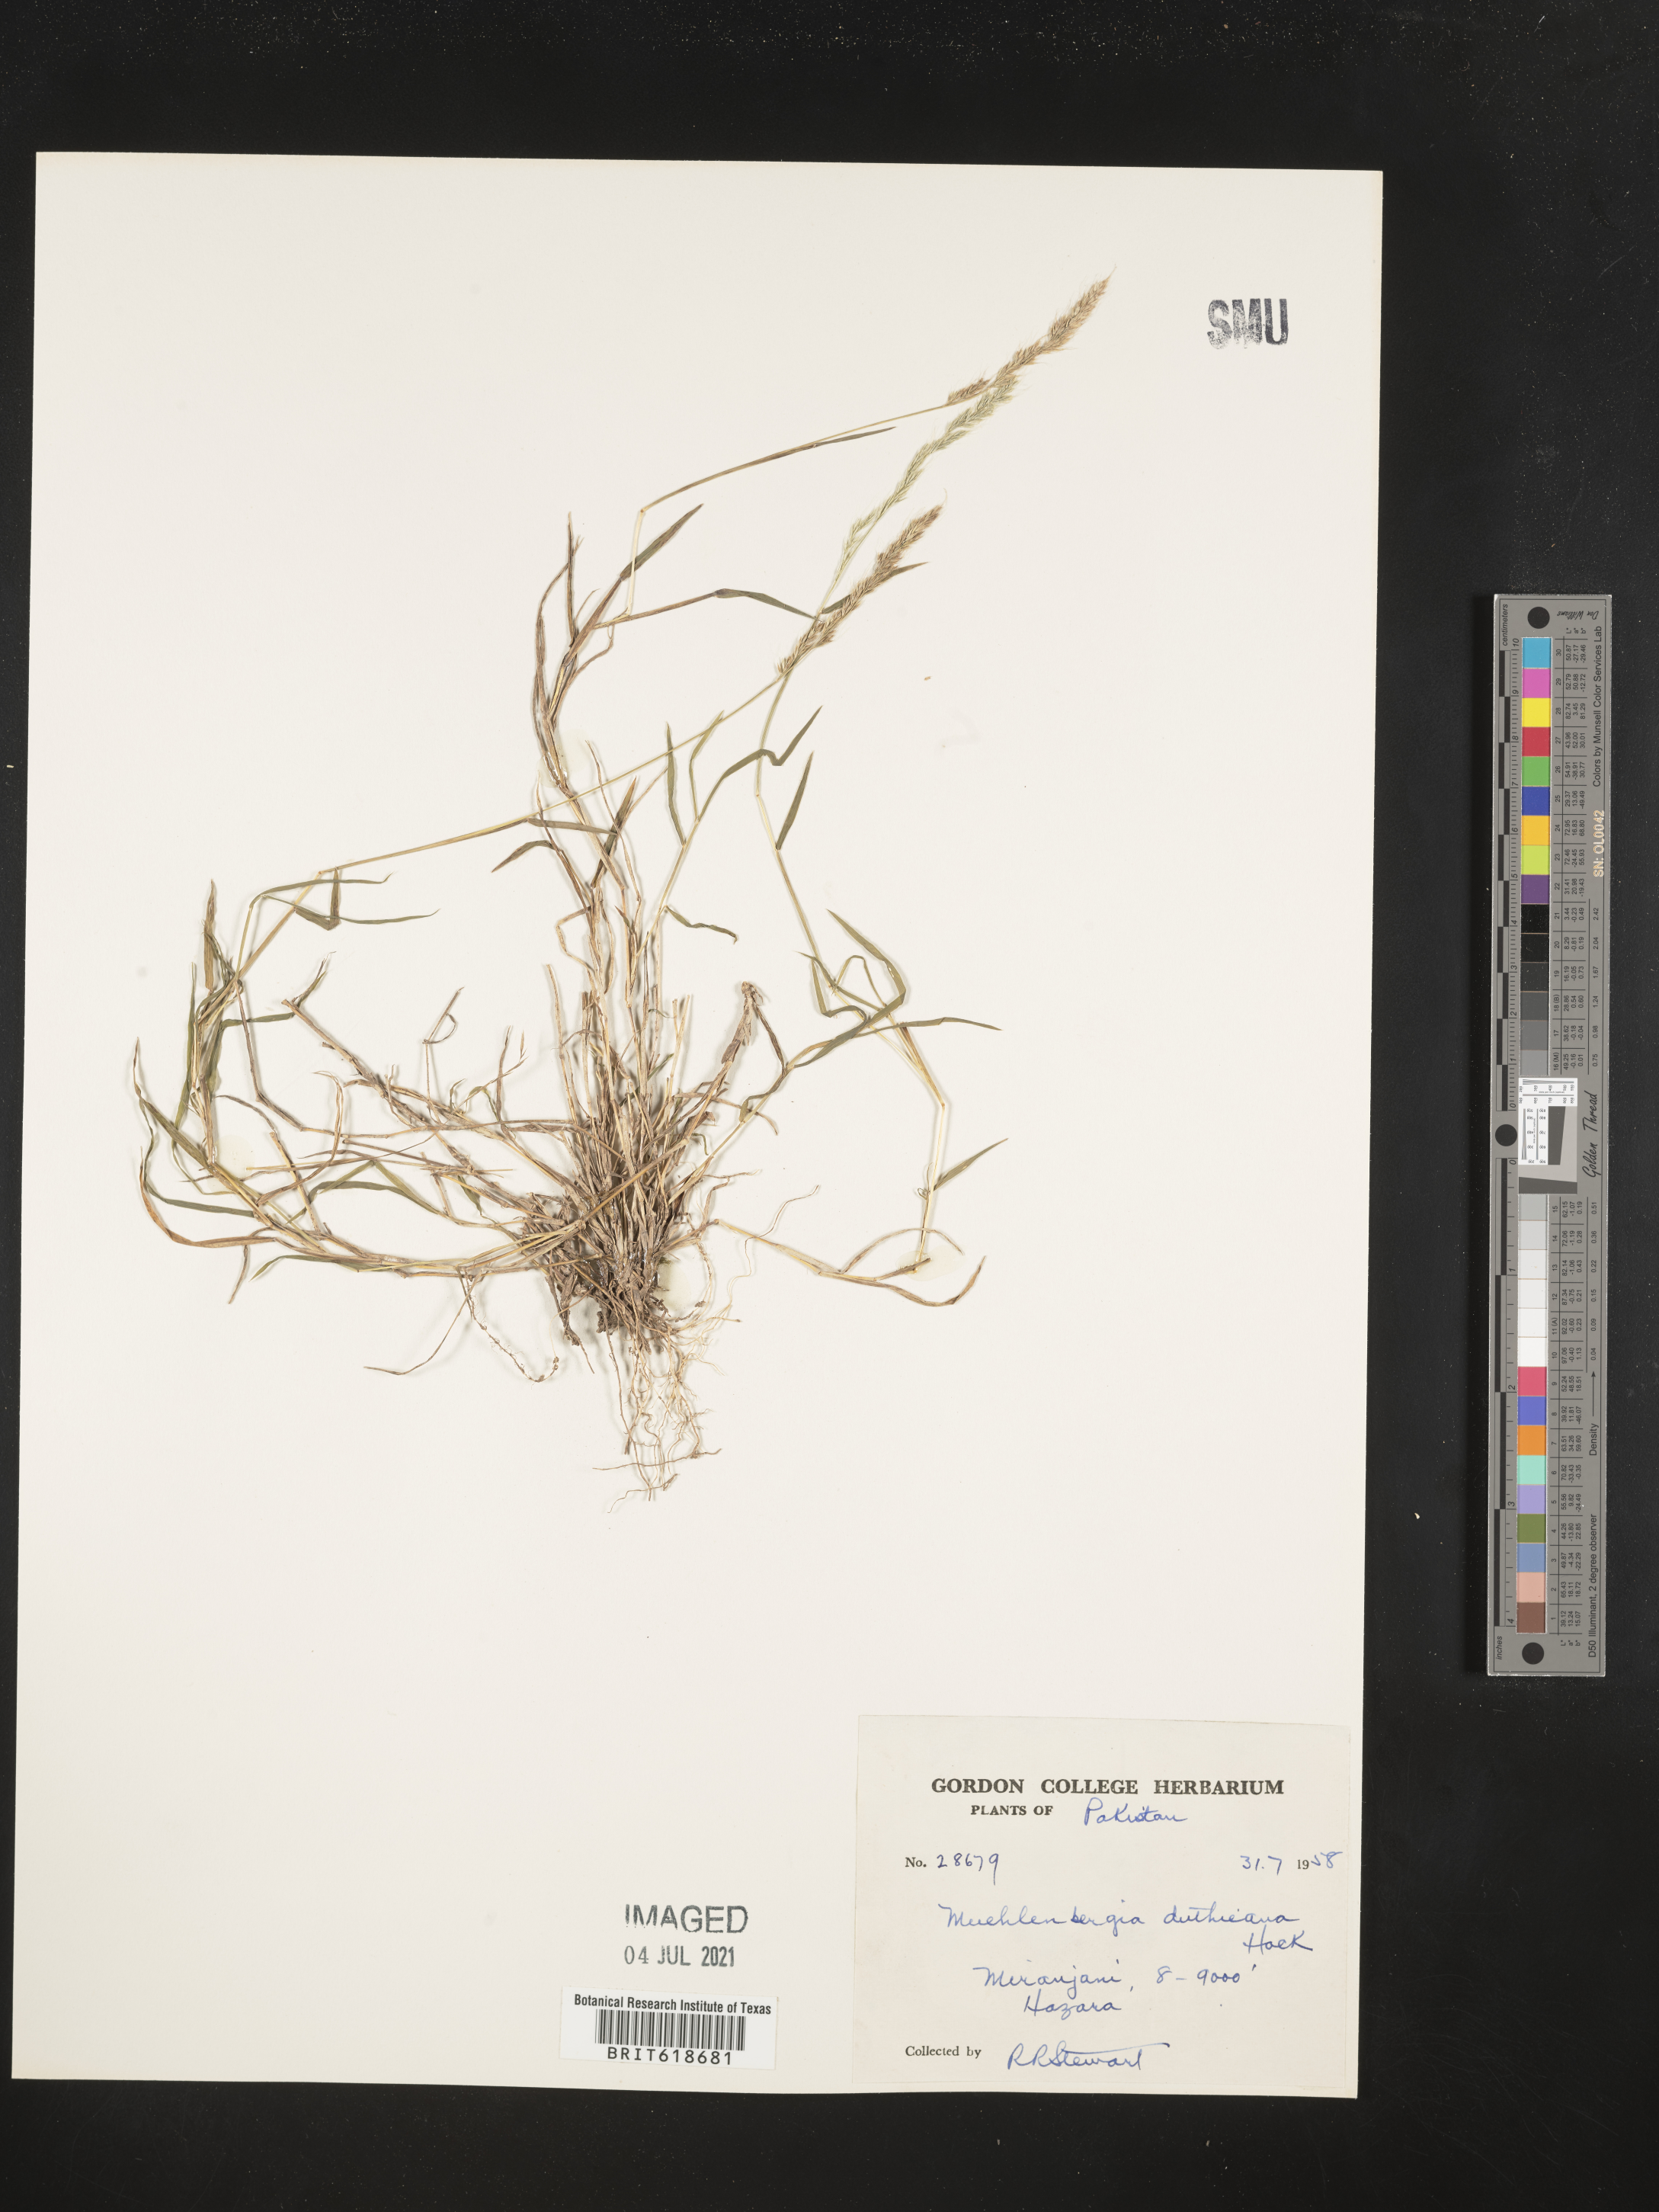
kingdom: Plantae
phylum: Tracheophyta
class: Liliopsida
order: Poales
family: Poaceae
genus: Muhlenbergia
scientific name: Muhlenbergia duthieana
